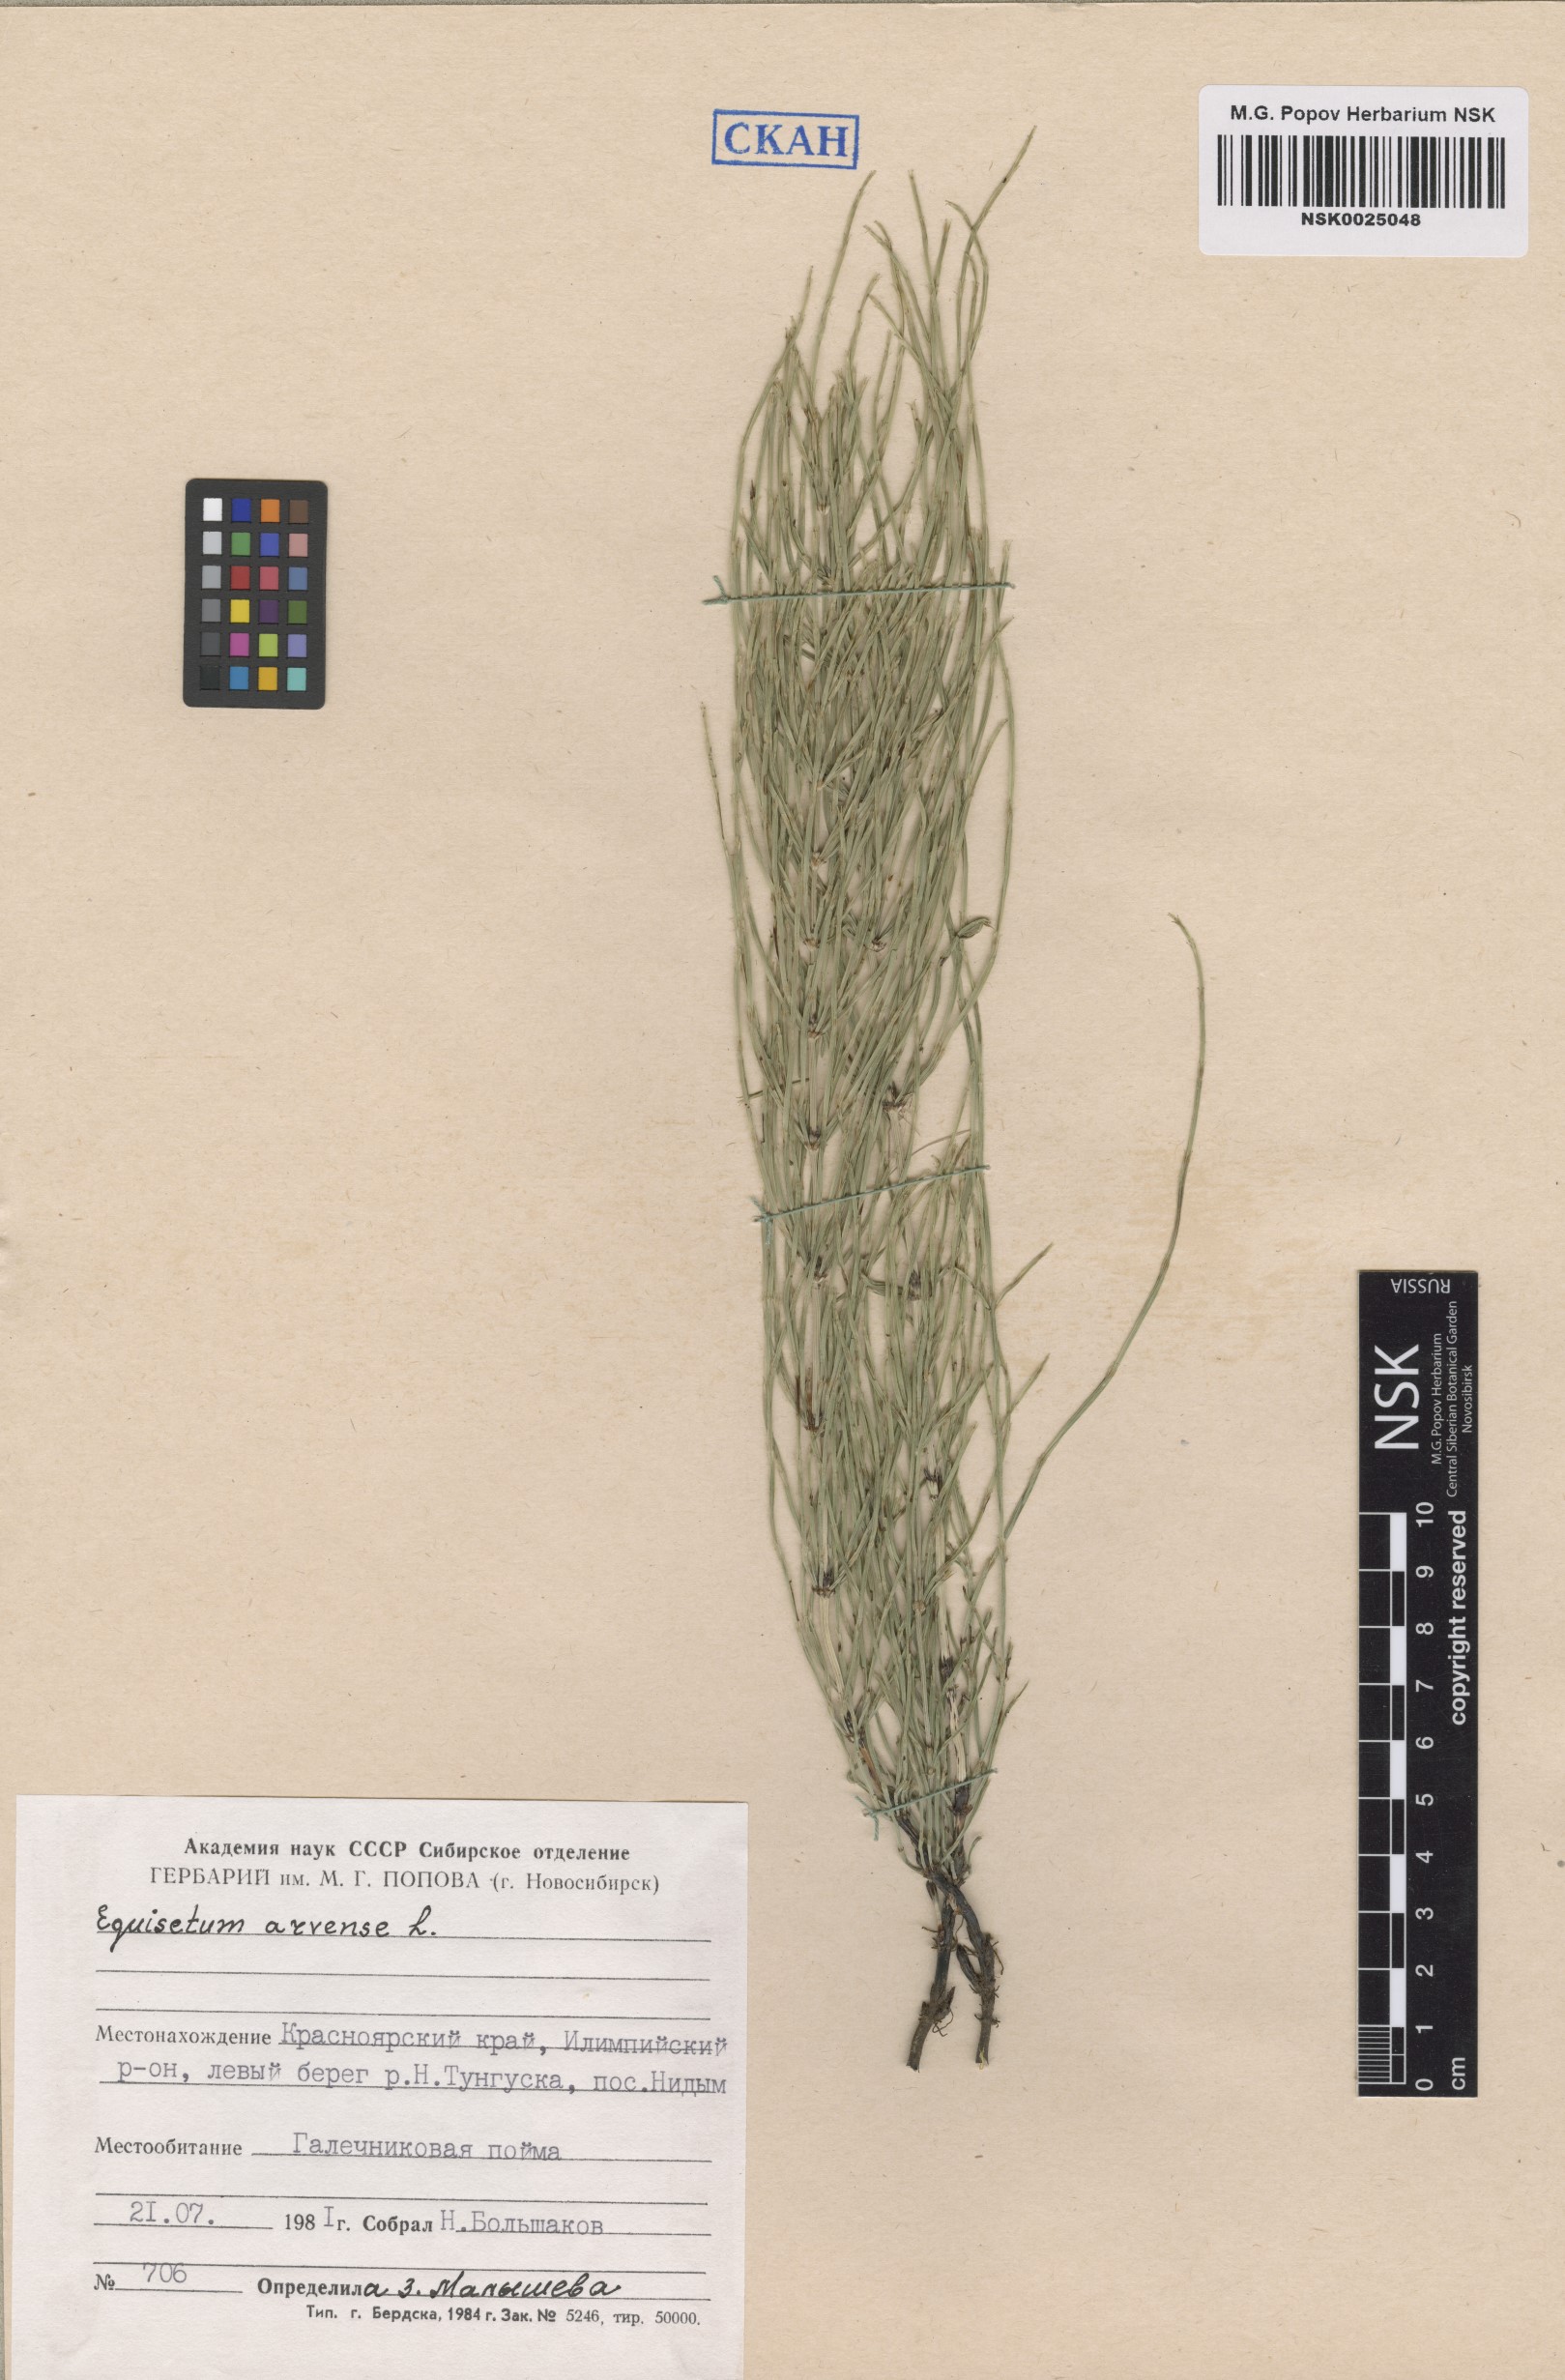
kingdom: Plantae
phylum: Tracheophyta
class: Polypodiopsida
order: Equisetales
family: Equisetaceae
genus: Equisetum
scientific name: Equisetum arvense
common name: Field horsetail
